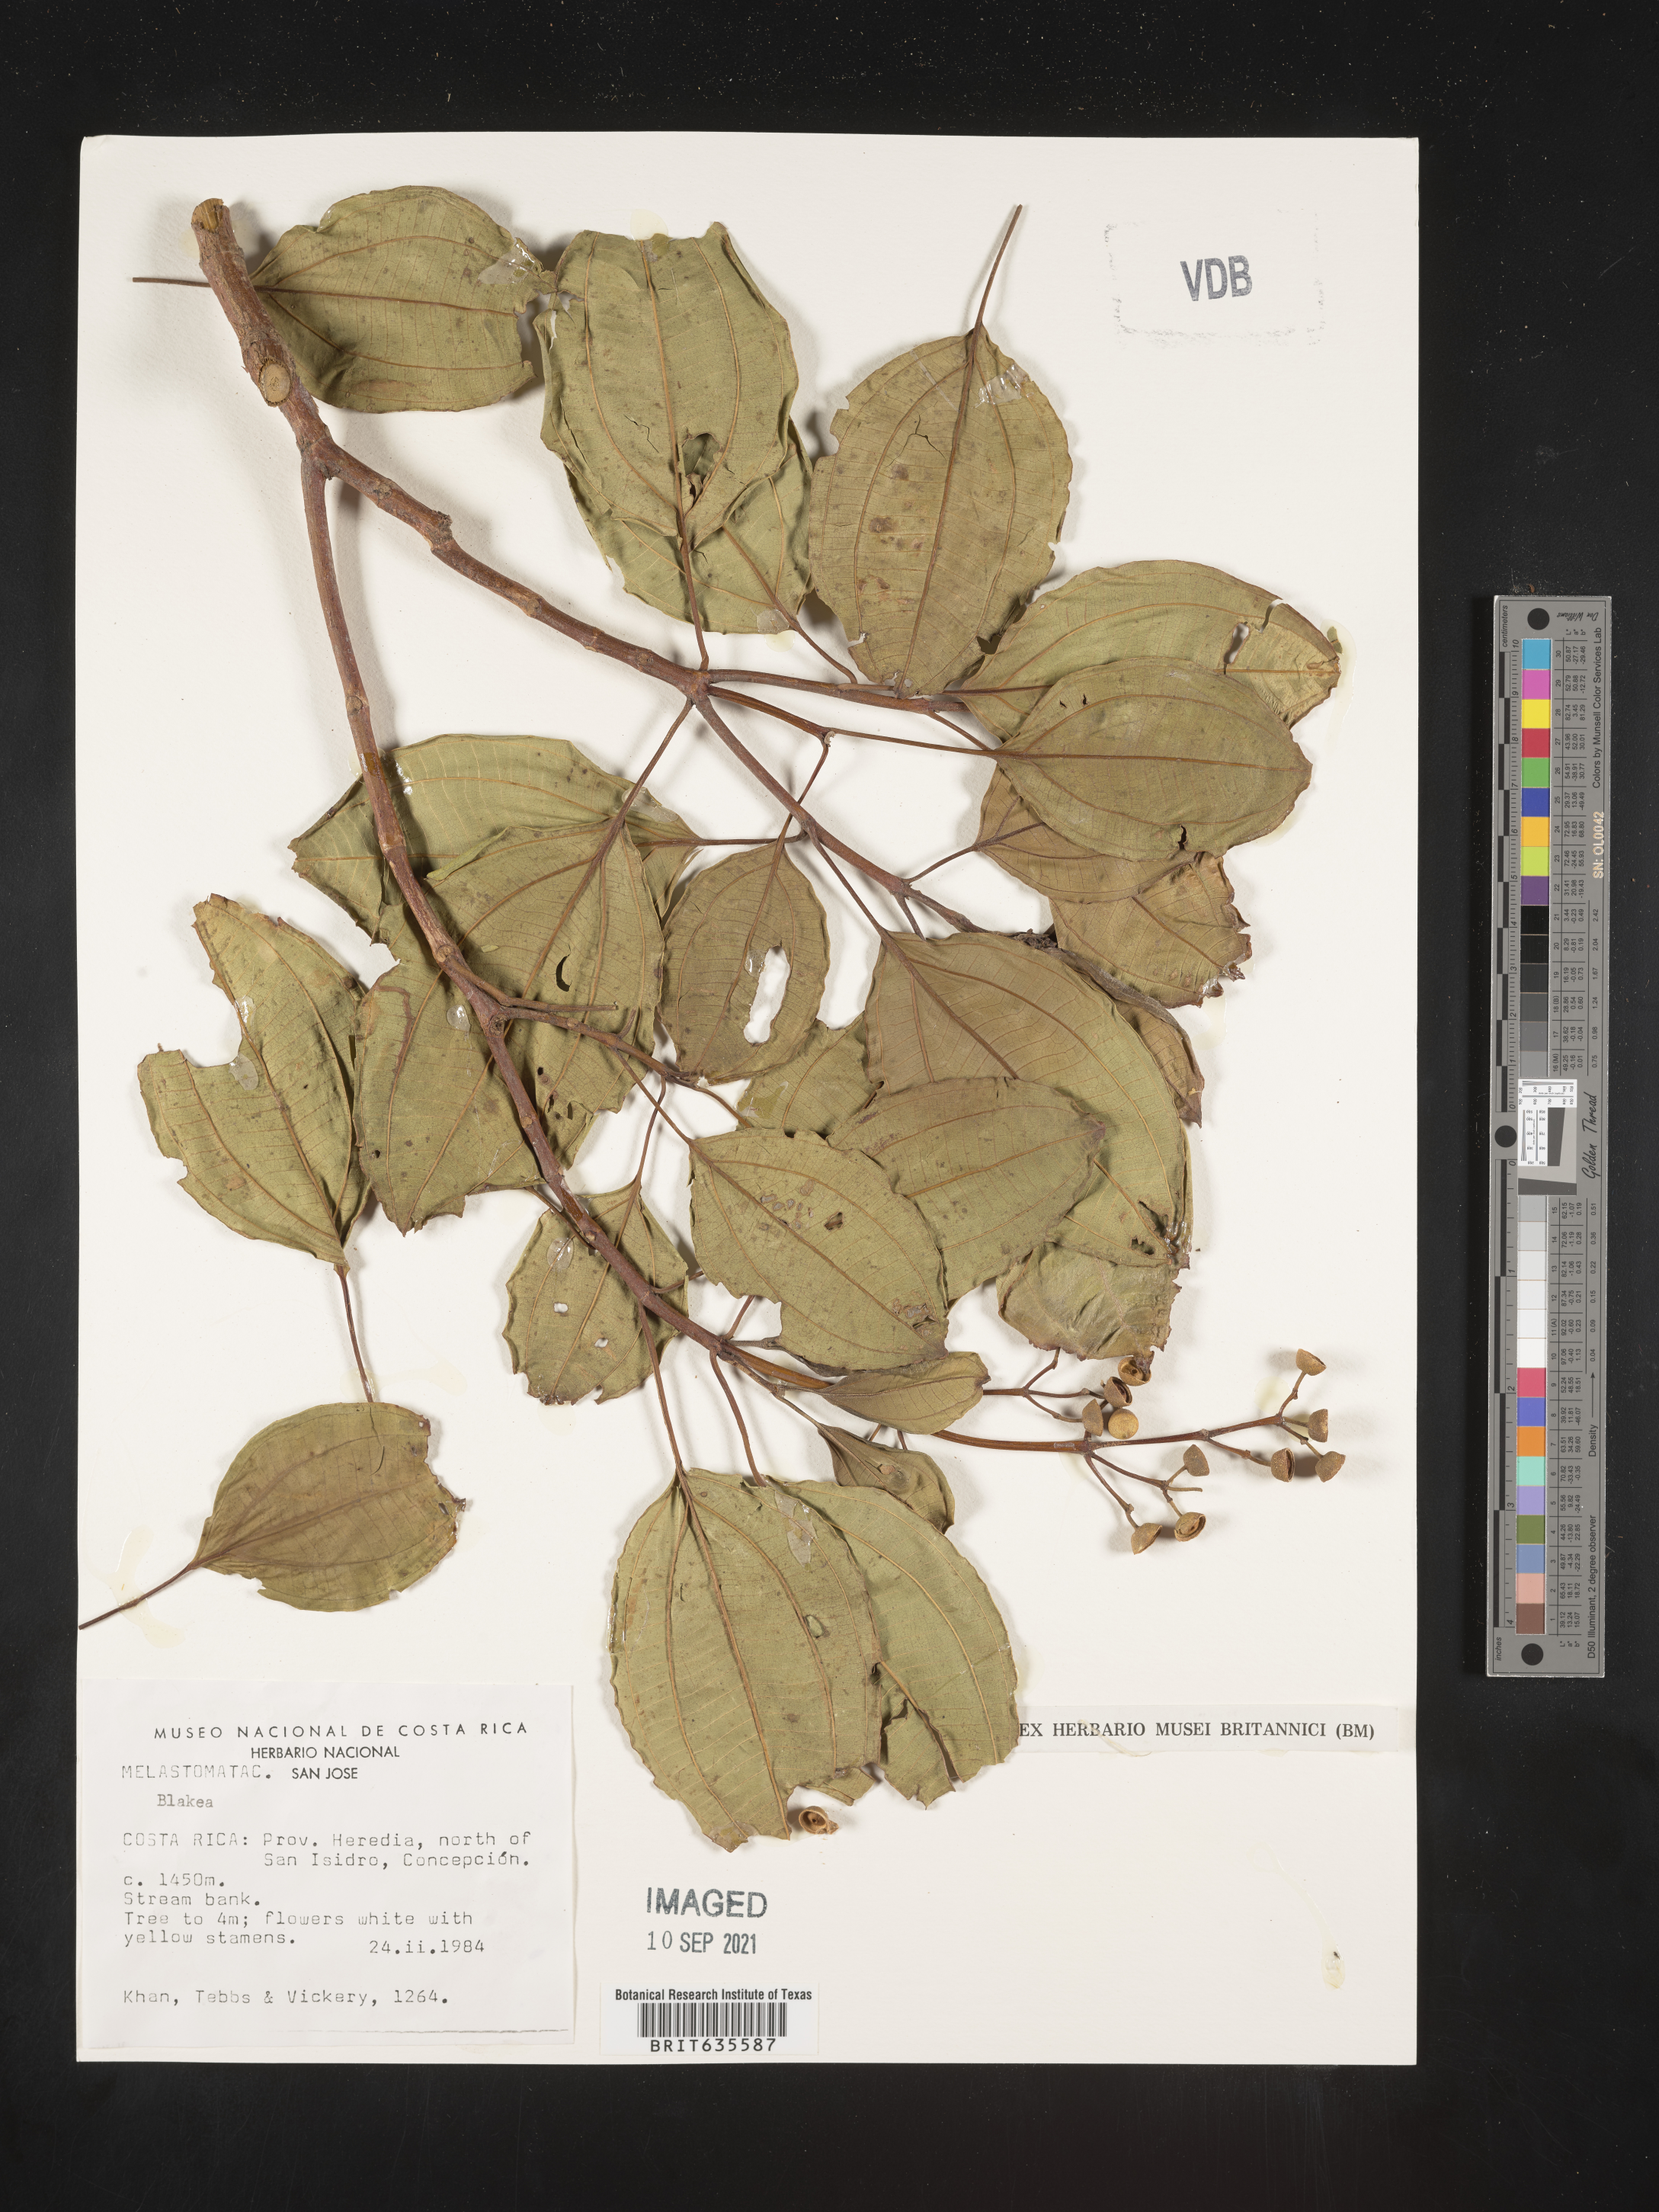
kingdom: Plantae
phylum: Tracheophyta
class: Magnoliopsida
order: Myrtales
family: Melastomataceae
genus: Blakea
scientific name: Blakea
